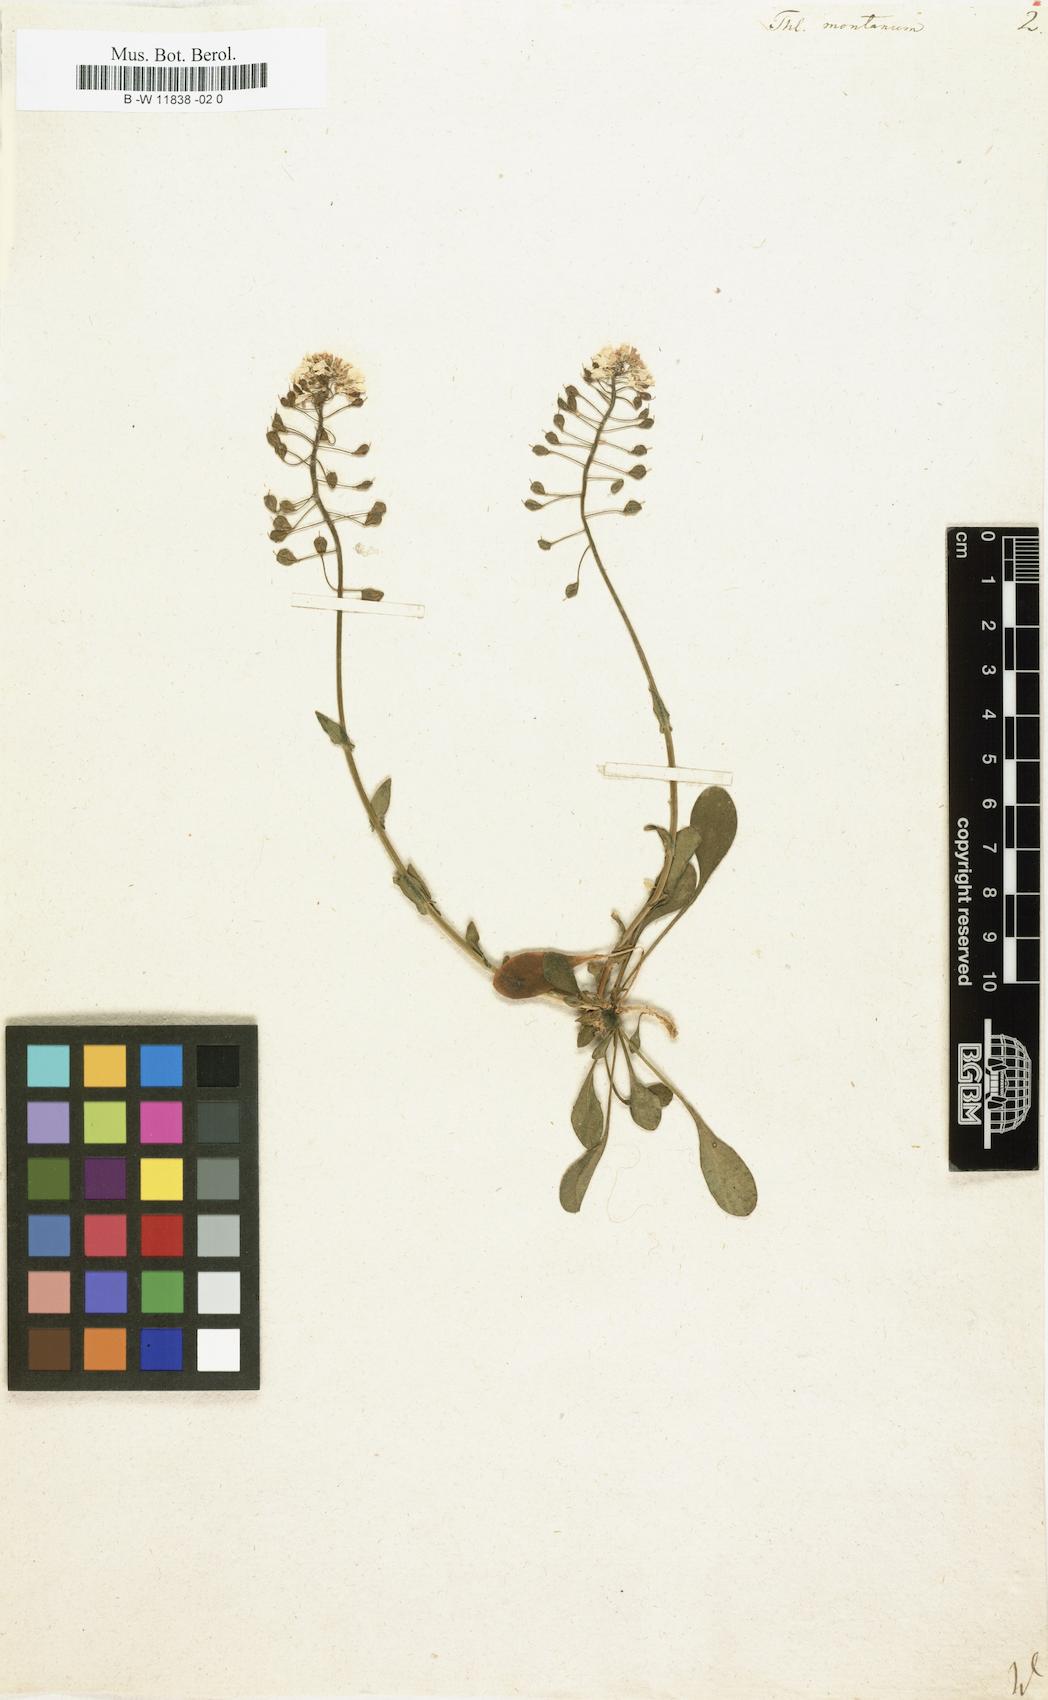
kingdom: Plantae
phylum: Tracheophyta
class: Magnoliopsida
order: Brassicales
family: Brassicaceae
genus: Thlaspi
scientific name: Thlaspi montanum
